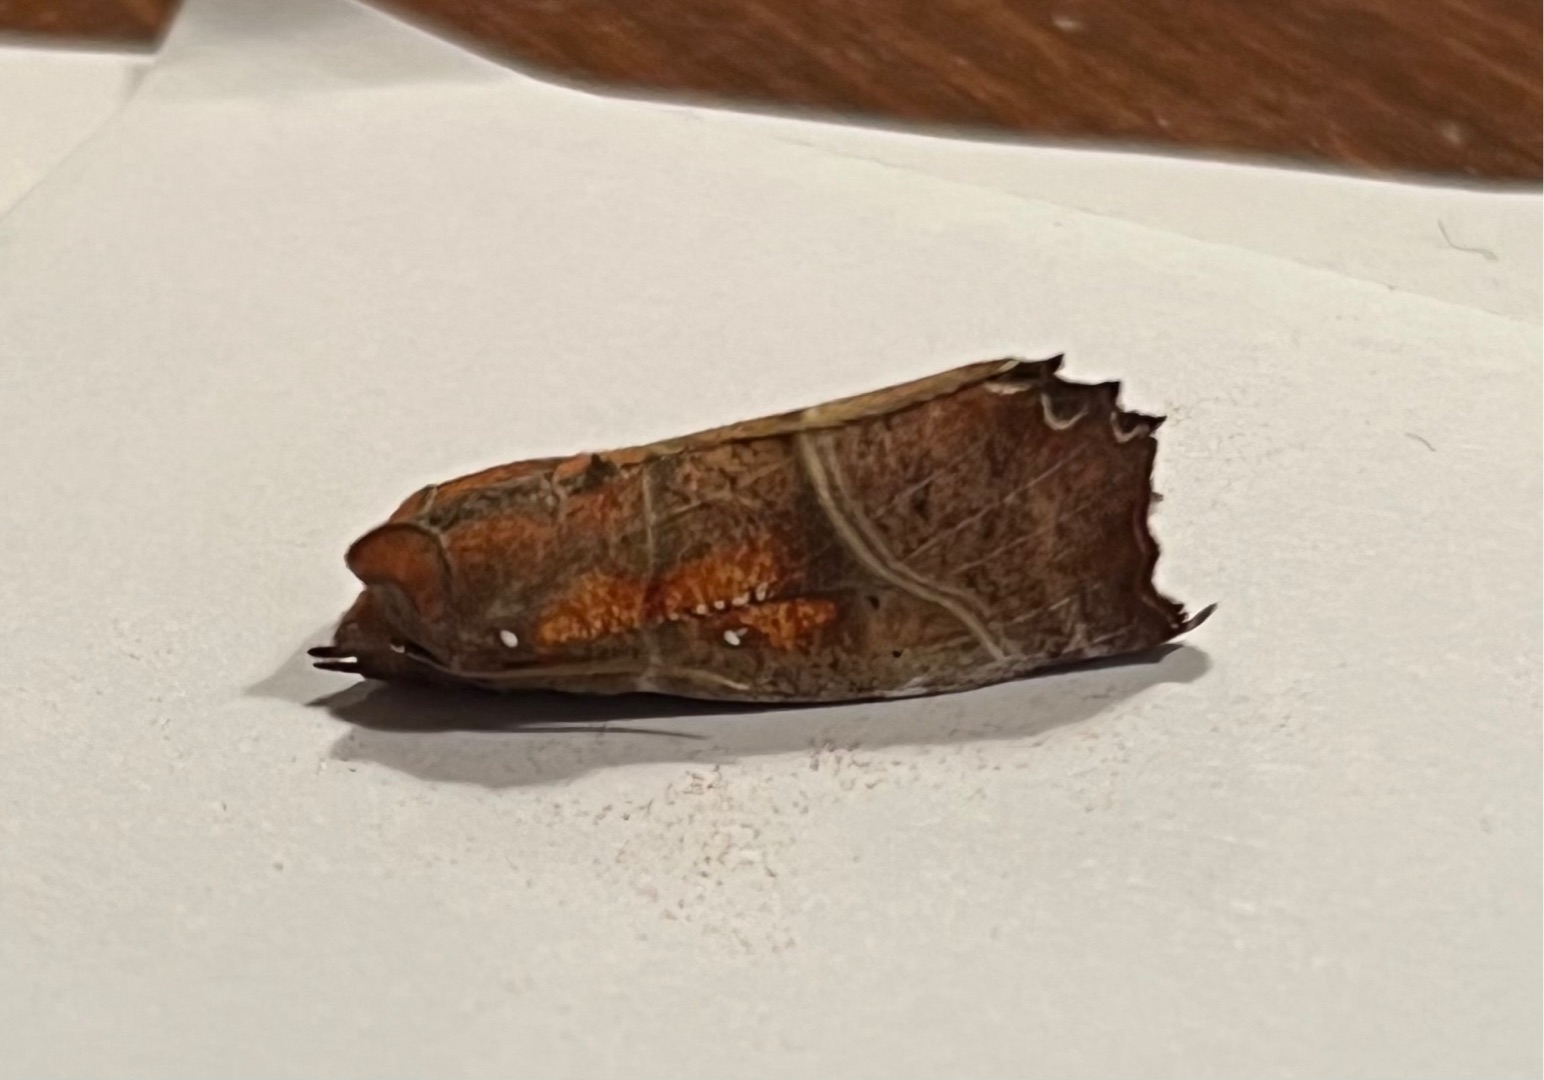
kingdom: Animalia
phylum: Arthropoda
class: Insecta
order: Lepidoptera
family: Erebidae
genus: Scoliopteryx
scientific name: Scoliopteryx libatrix
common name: Husmoderugle
